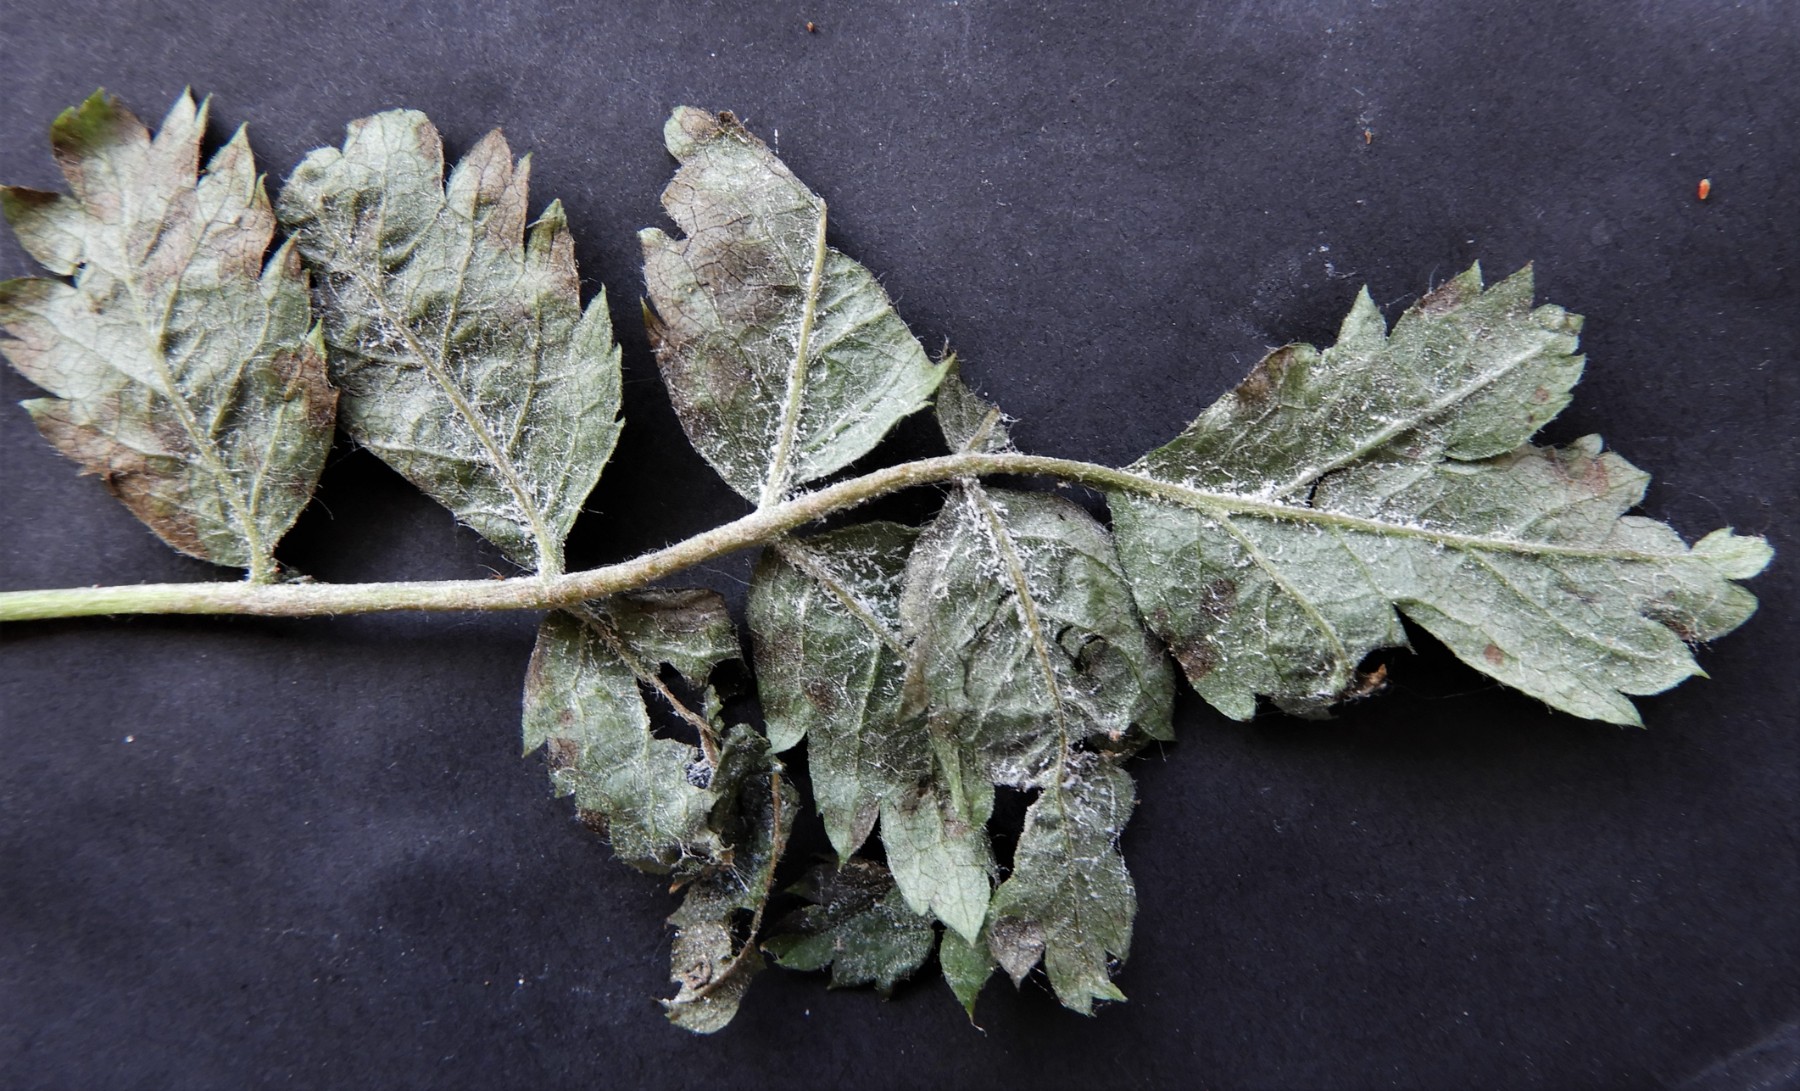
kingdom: Fungi
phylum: Ascomycota
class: Leotiomycetes
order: Helotiales
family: Erysiphaceae
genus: Podosphaera
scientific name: Podosphaera clandestina
